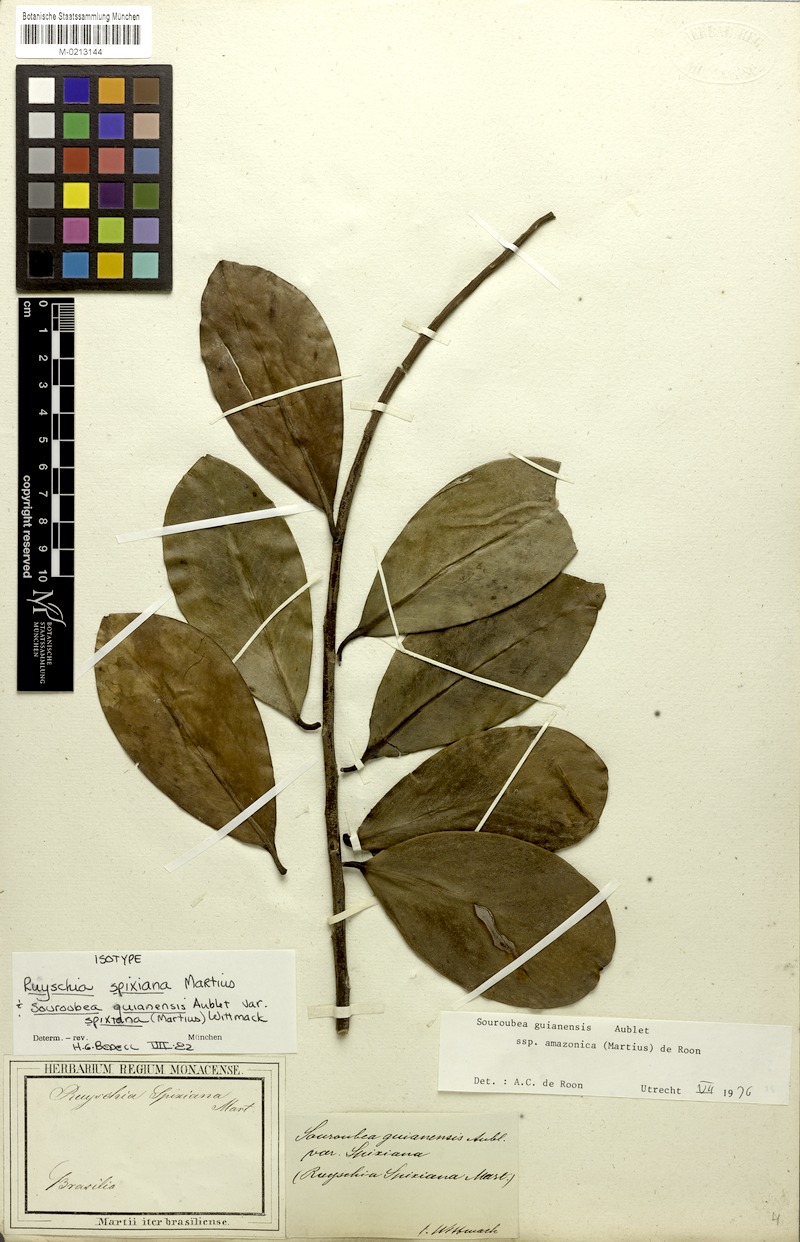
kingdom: Plantae
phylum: Tracheophyta
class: Magnoliopsida
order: Ericales
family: Marcgraviaceae
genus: Souroubea
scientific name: Souroubea guianensis
